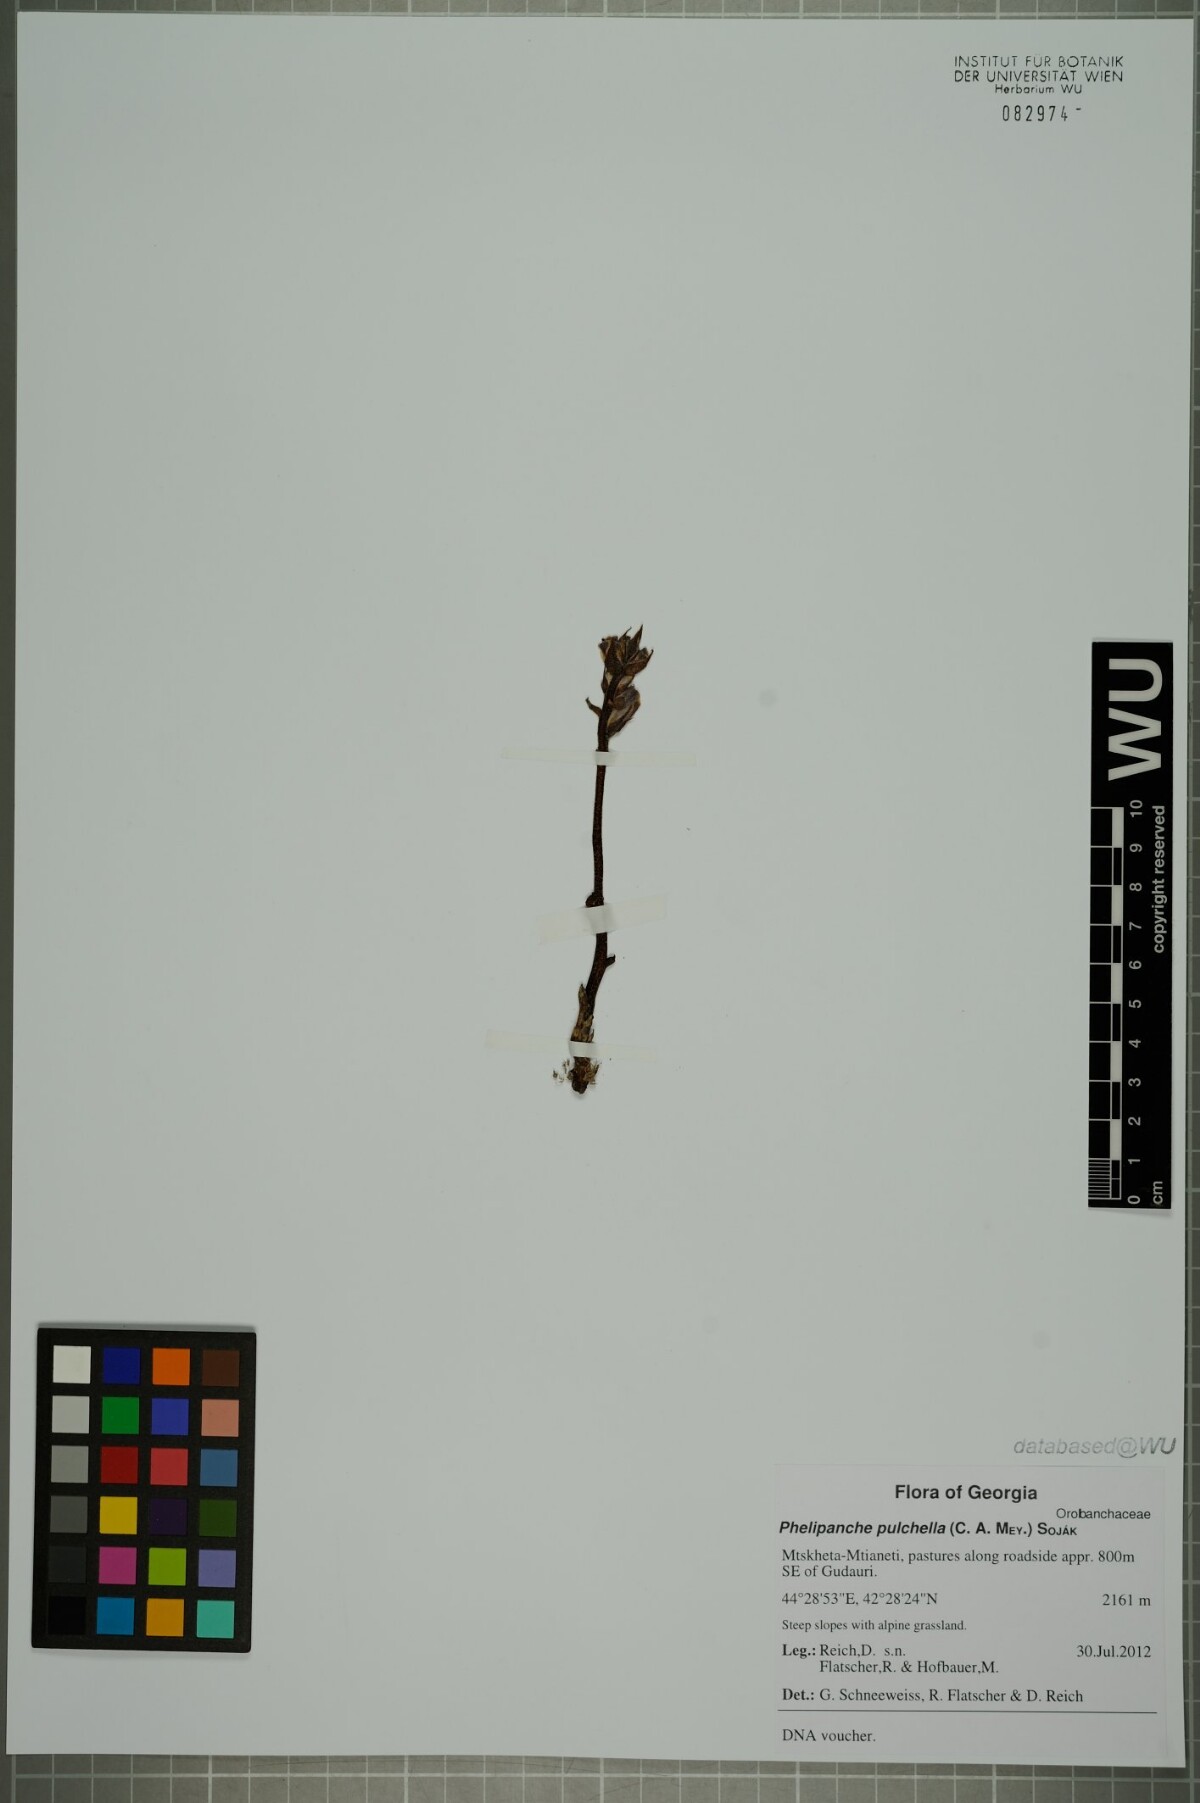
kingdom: Plantae
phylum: Tracheophyta
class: Magnoliopsida
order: Lamiales
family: Orobanchaceae
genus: Phelipanche
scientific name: Phelipanche pulchella
